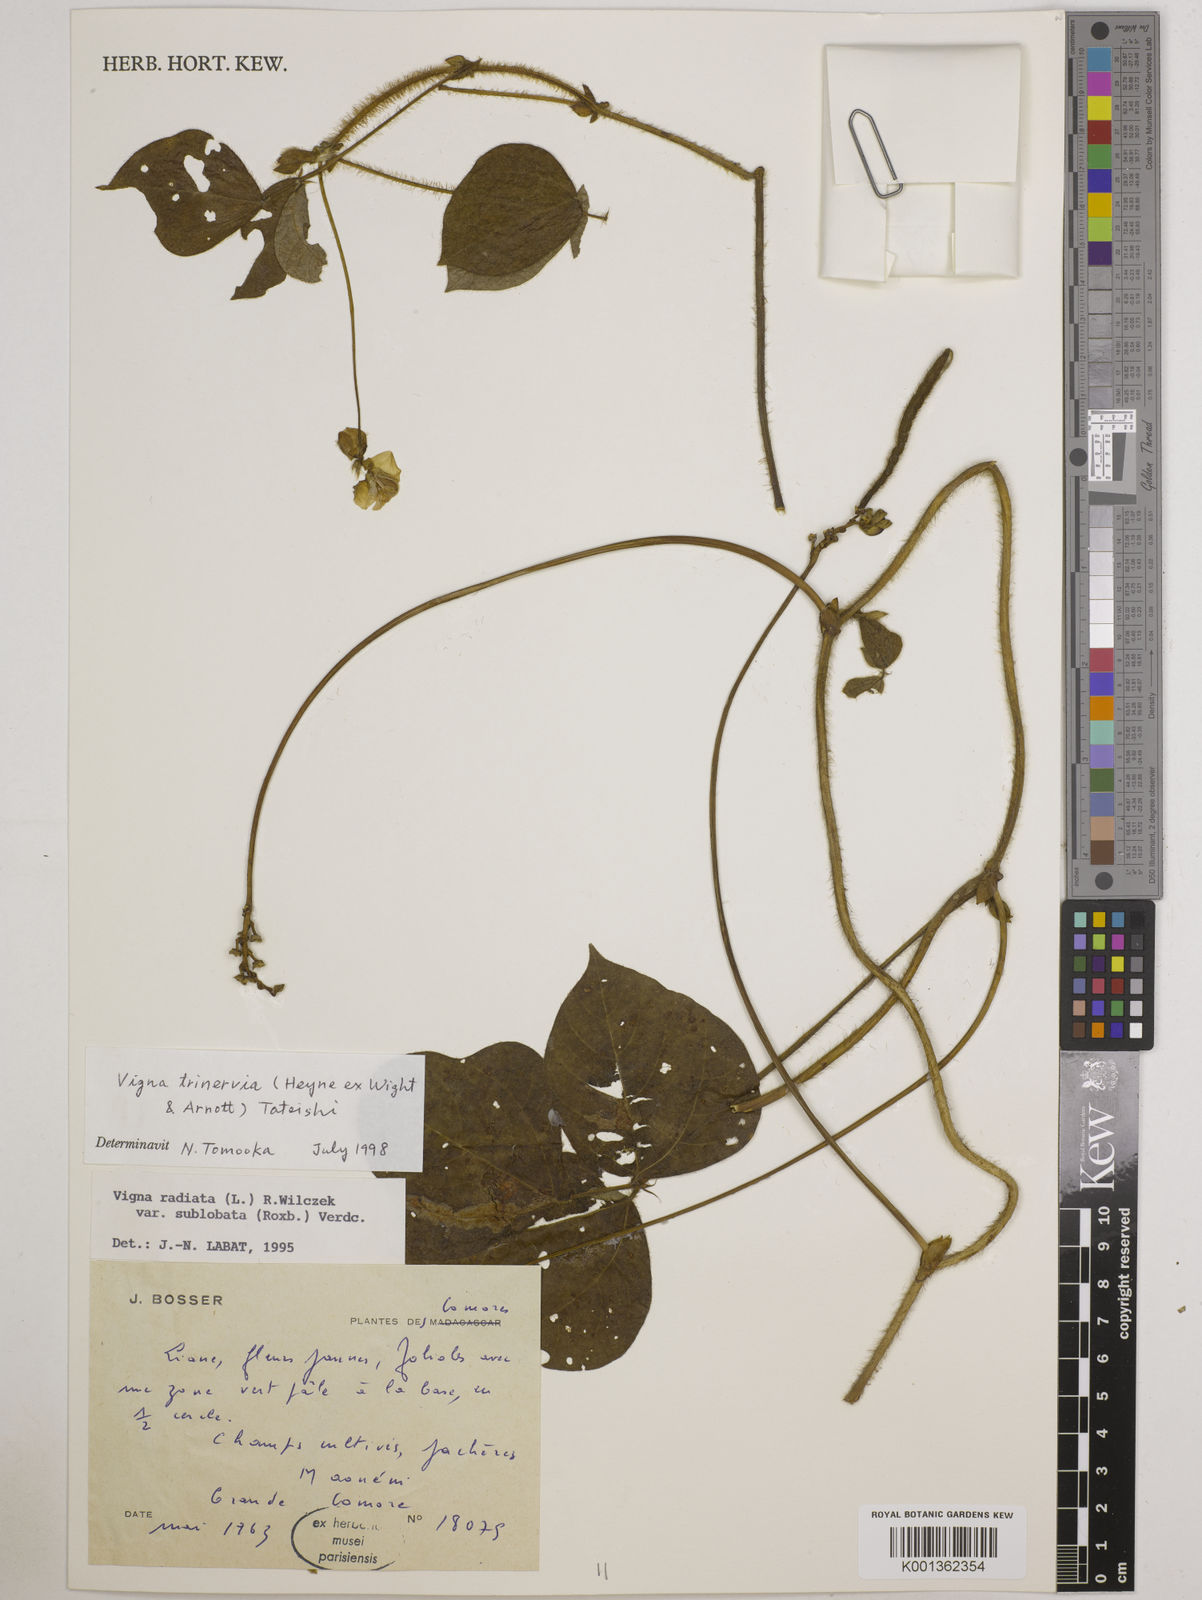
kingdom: Plantae
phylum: Tracheophyta
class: Magnoliopsida
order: Fabales
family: Fabaceae
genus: Vigna
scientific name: Vigna radiata
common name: Mung-bean
